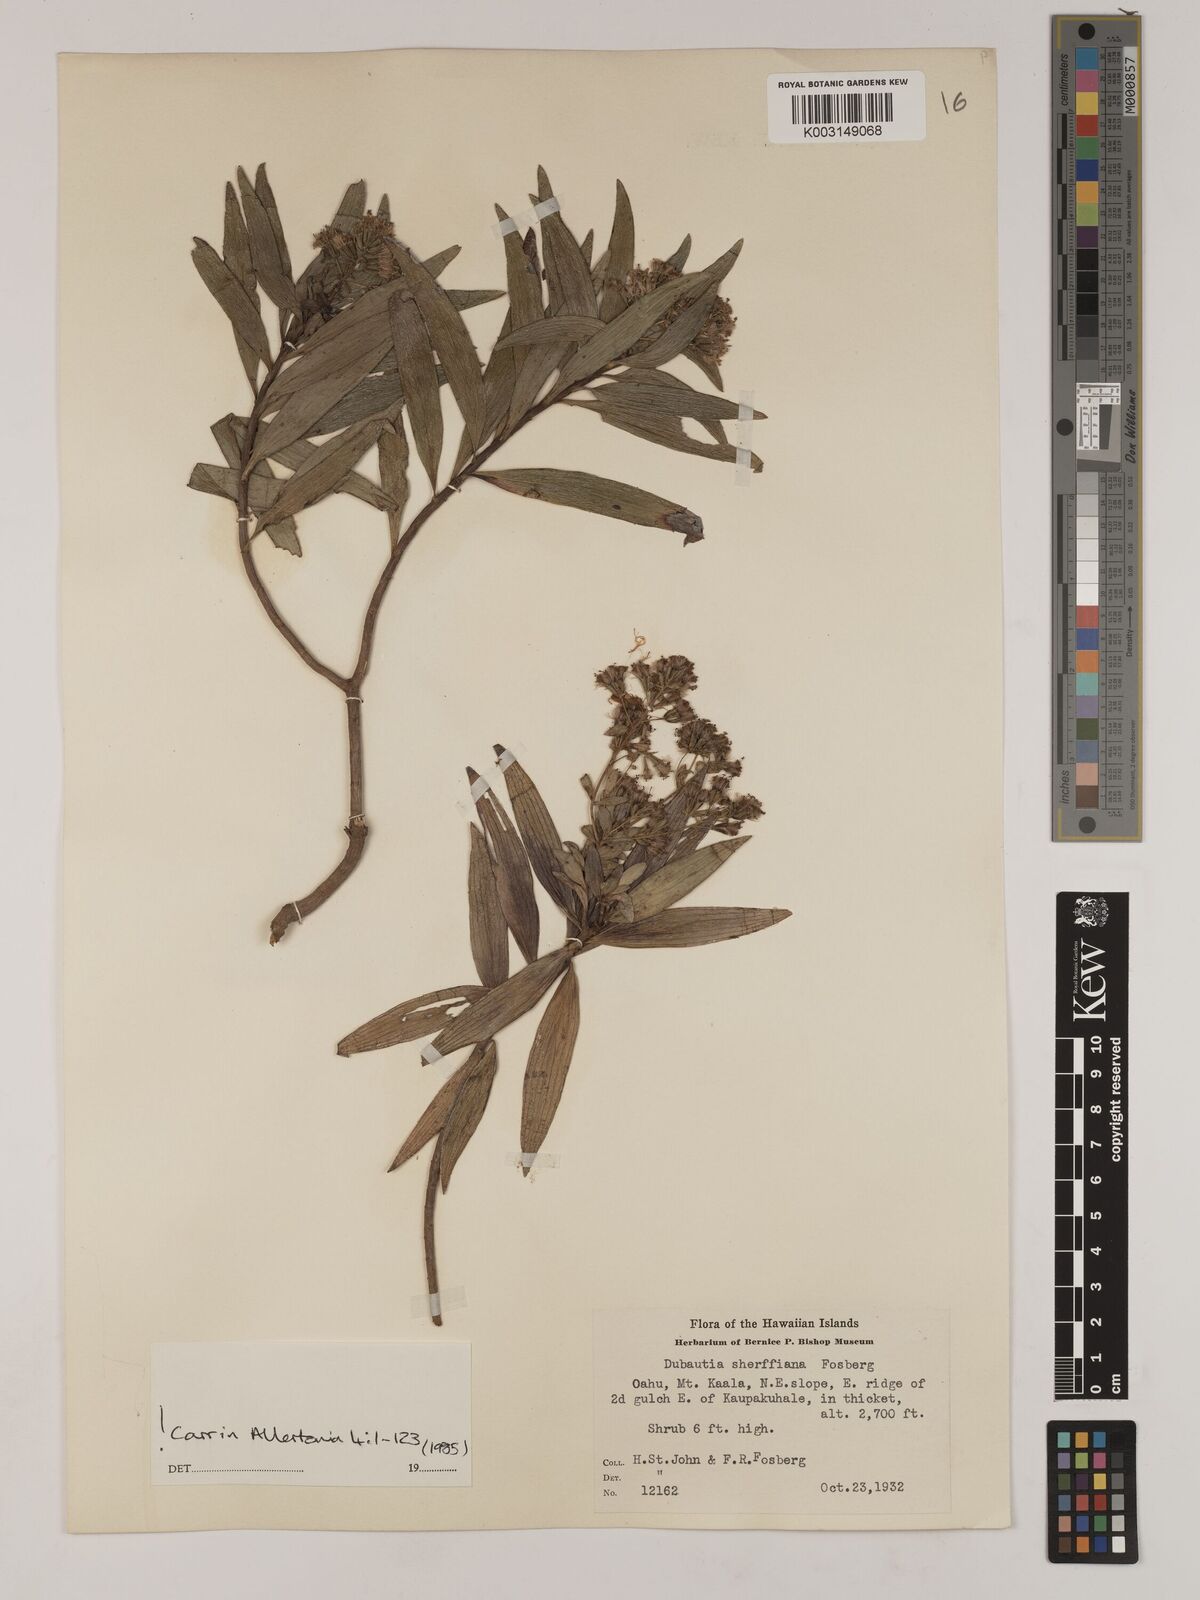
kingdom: Plantae
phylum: Tracheophyta
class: Magnoliopsida
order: Asterales
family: Asteraceae
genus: Dubautia
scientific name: Dubautia sherffiana
